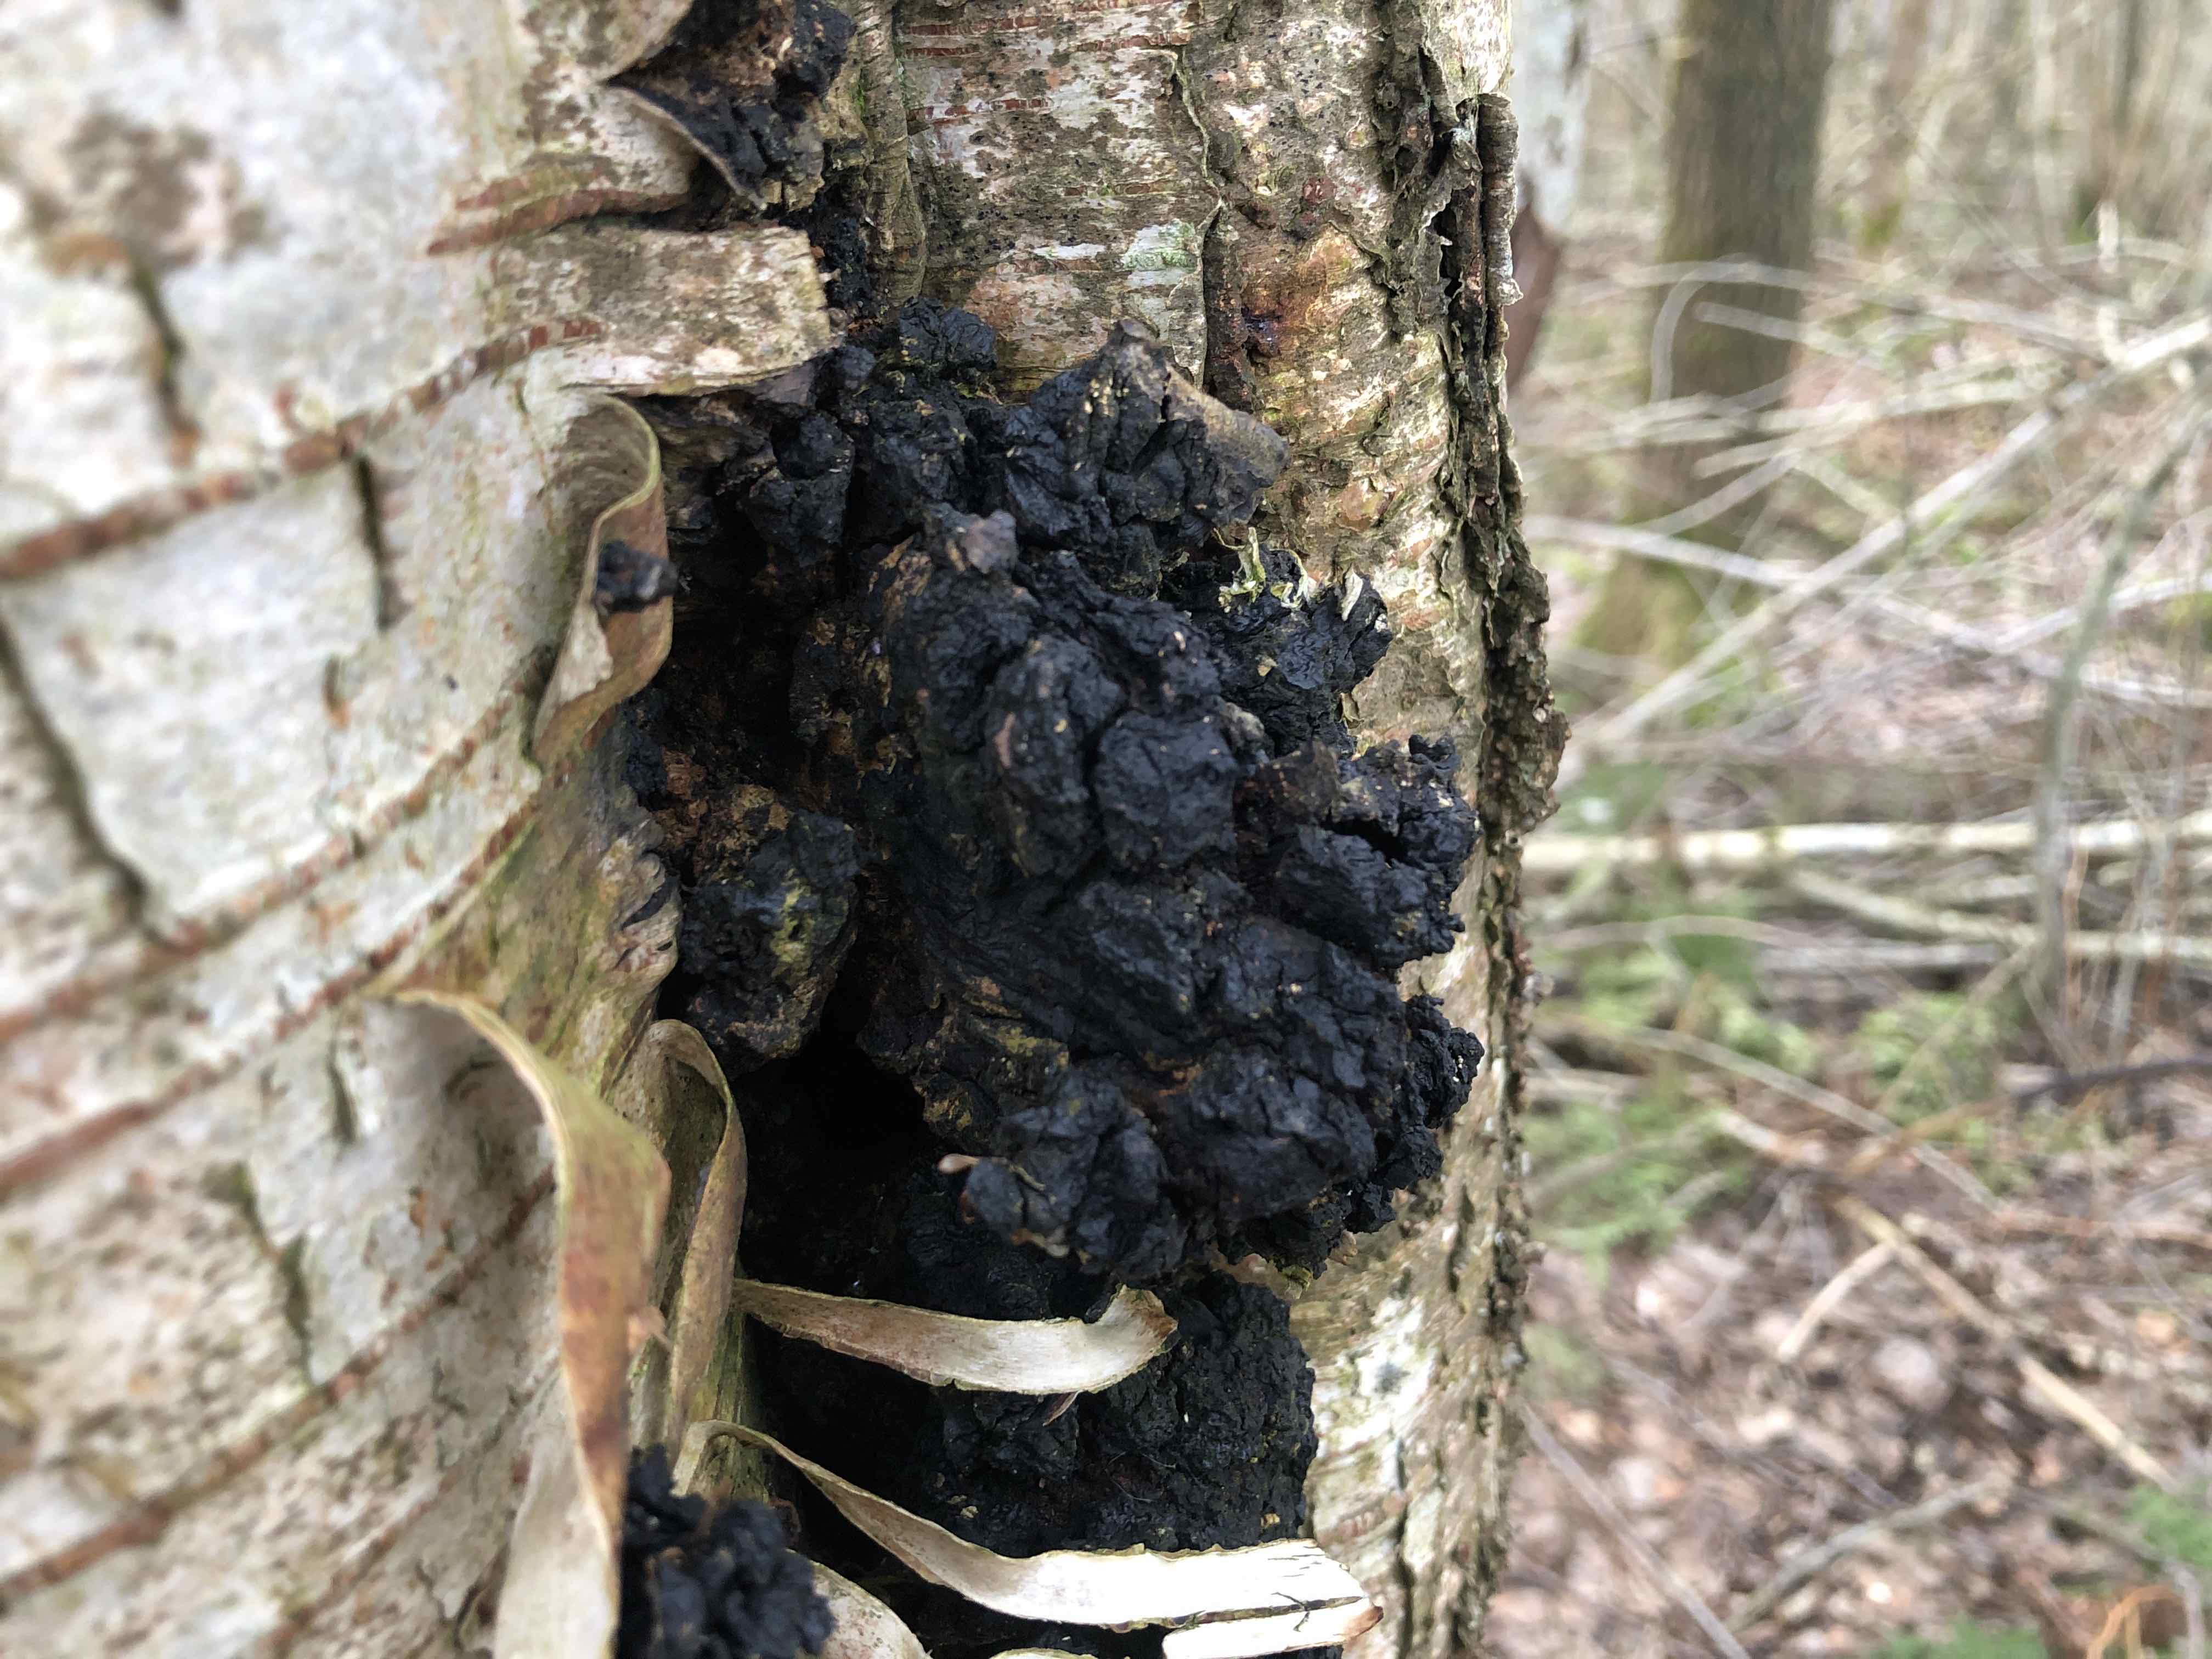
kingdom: Fungi
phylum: Basidiomycota
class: Agaricomycetes
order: Hymenochaetales
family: Hymenochaetaceae
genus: Inonotus
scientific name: Inonotus obliquus
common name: birke-spejlporesvamp
